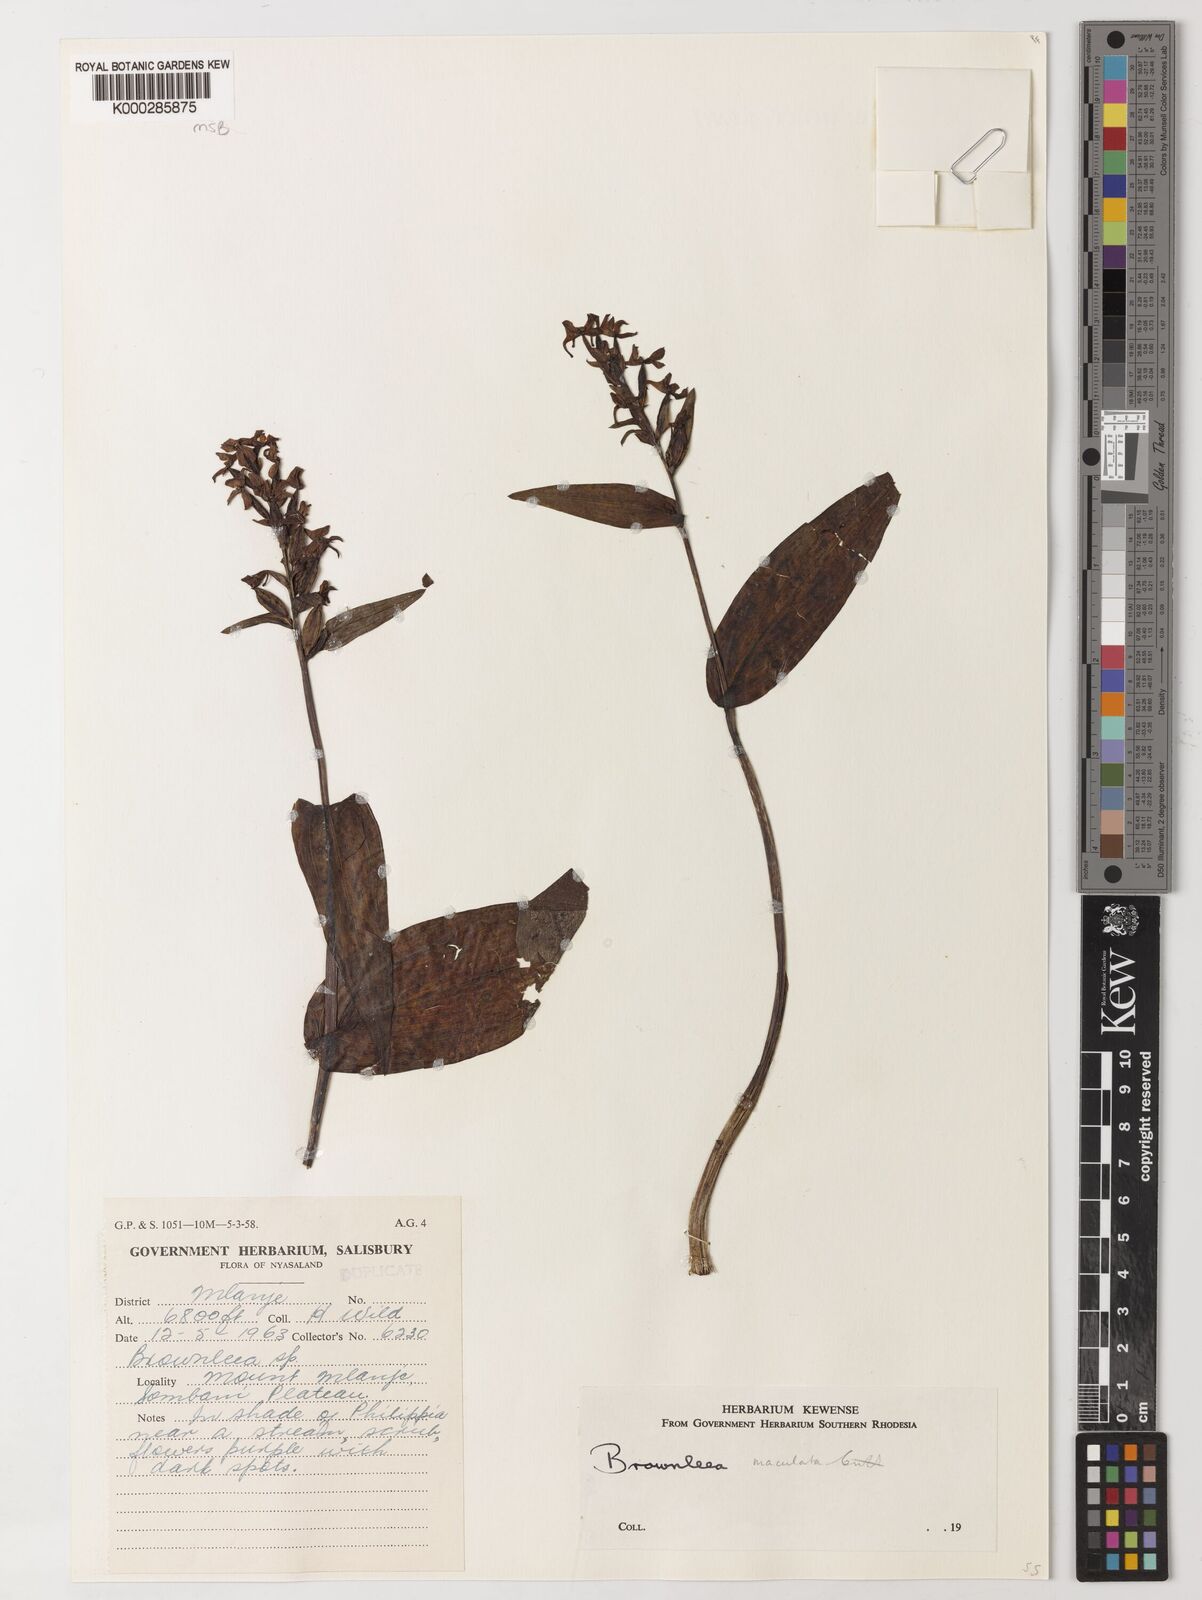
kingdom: Plantae
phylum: Tracheophyta
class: Liliopsida
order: Asparagales
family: Orchidaceae
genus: Brownleea
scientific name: Brownleea maculata
